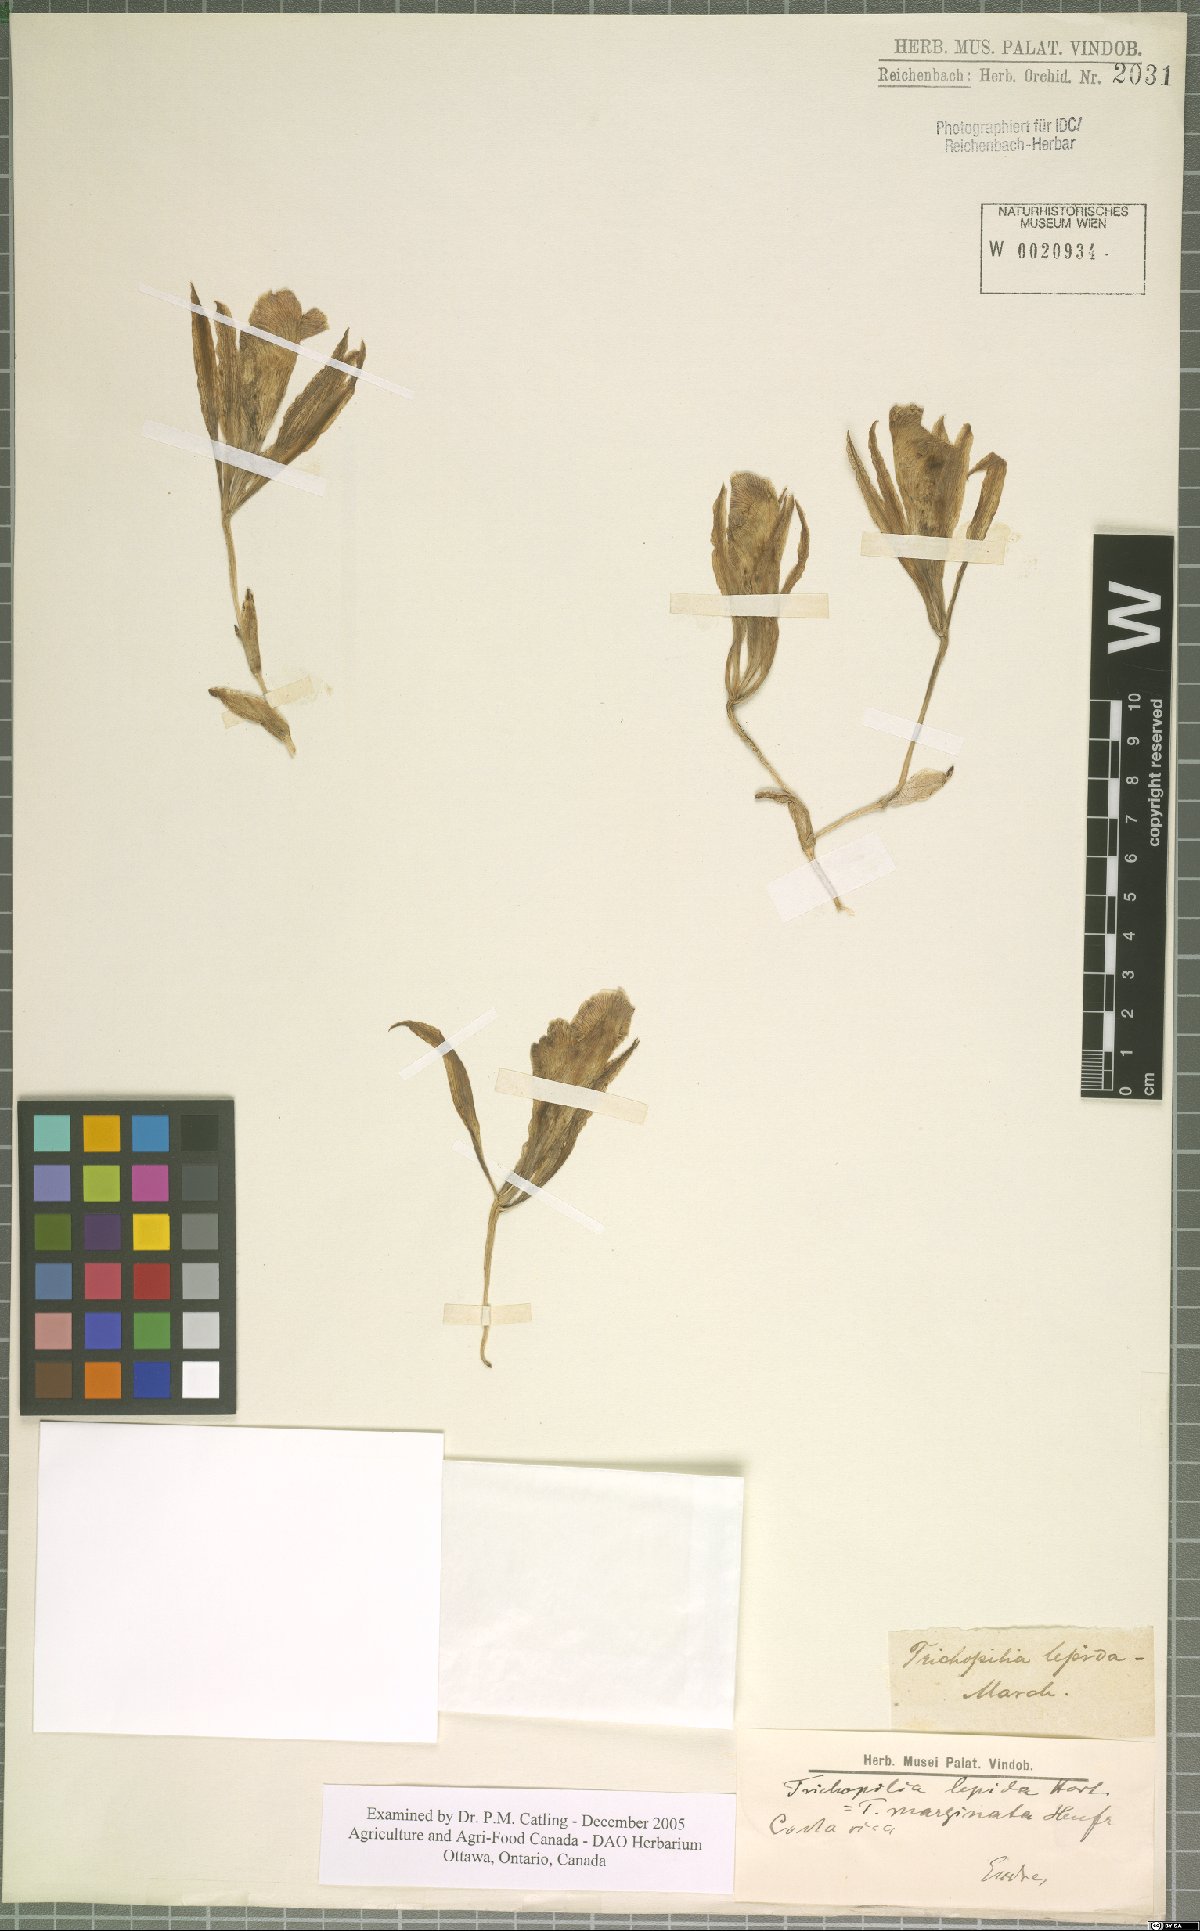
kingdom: Plantae
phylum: Tracheophyta
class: Liliopsida
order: Asparagales
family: Orchidaceae
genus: Trichopilia
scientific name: Trichopilia marginata
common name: Rimmed trichopilia
